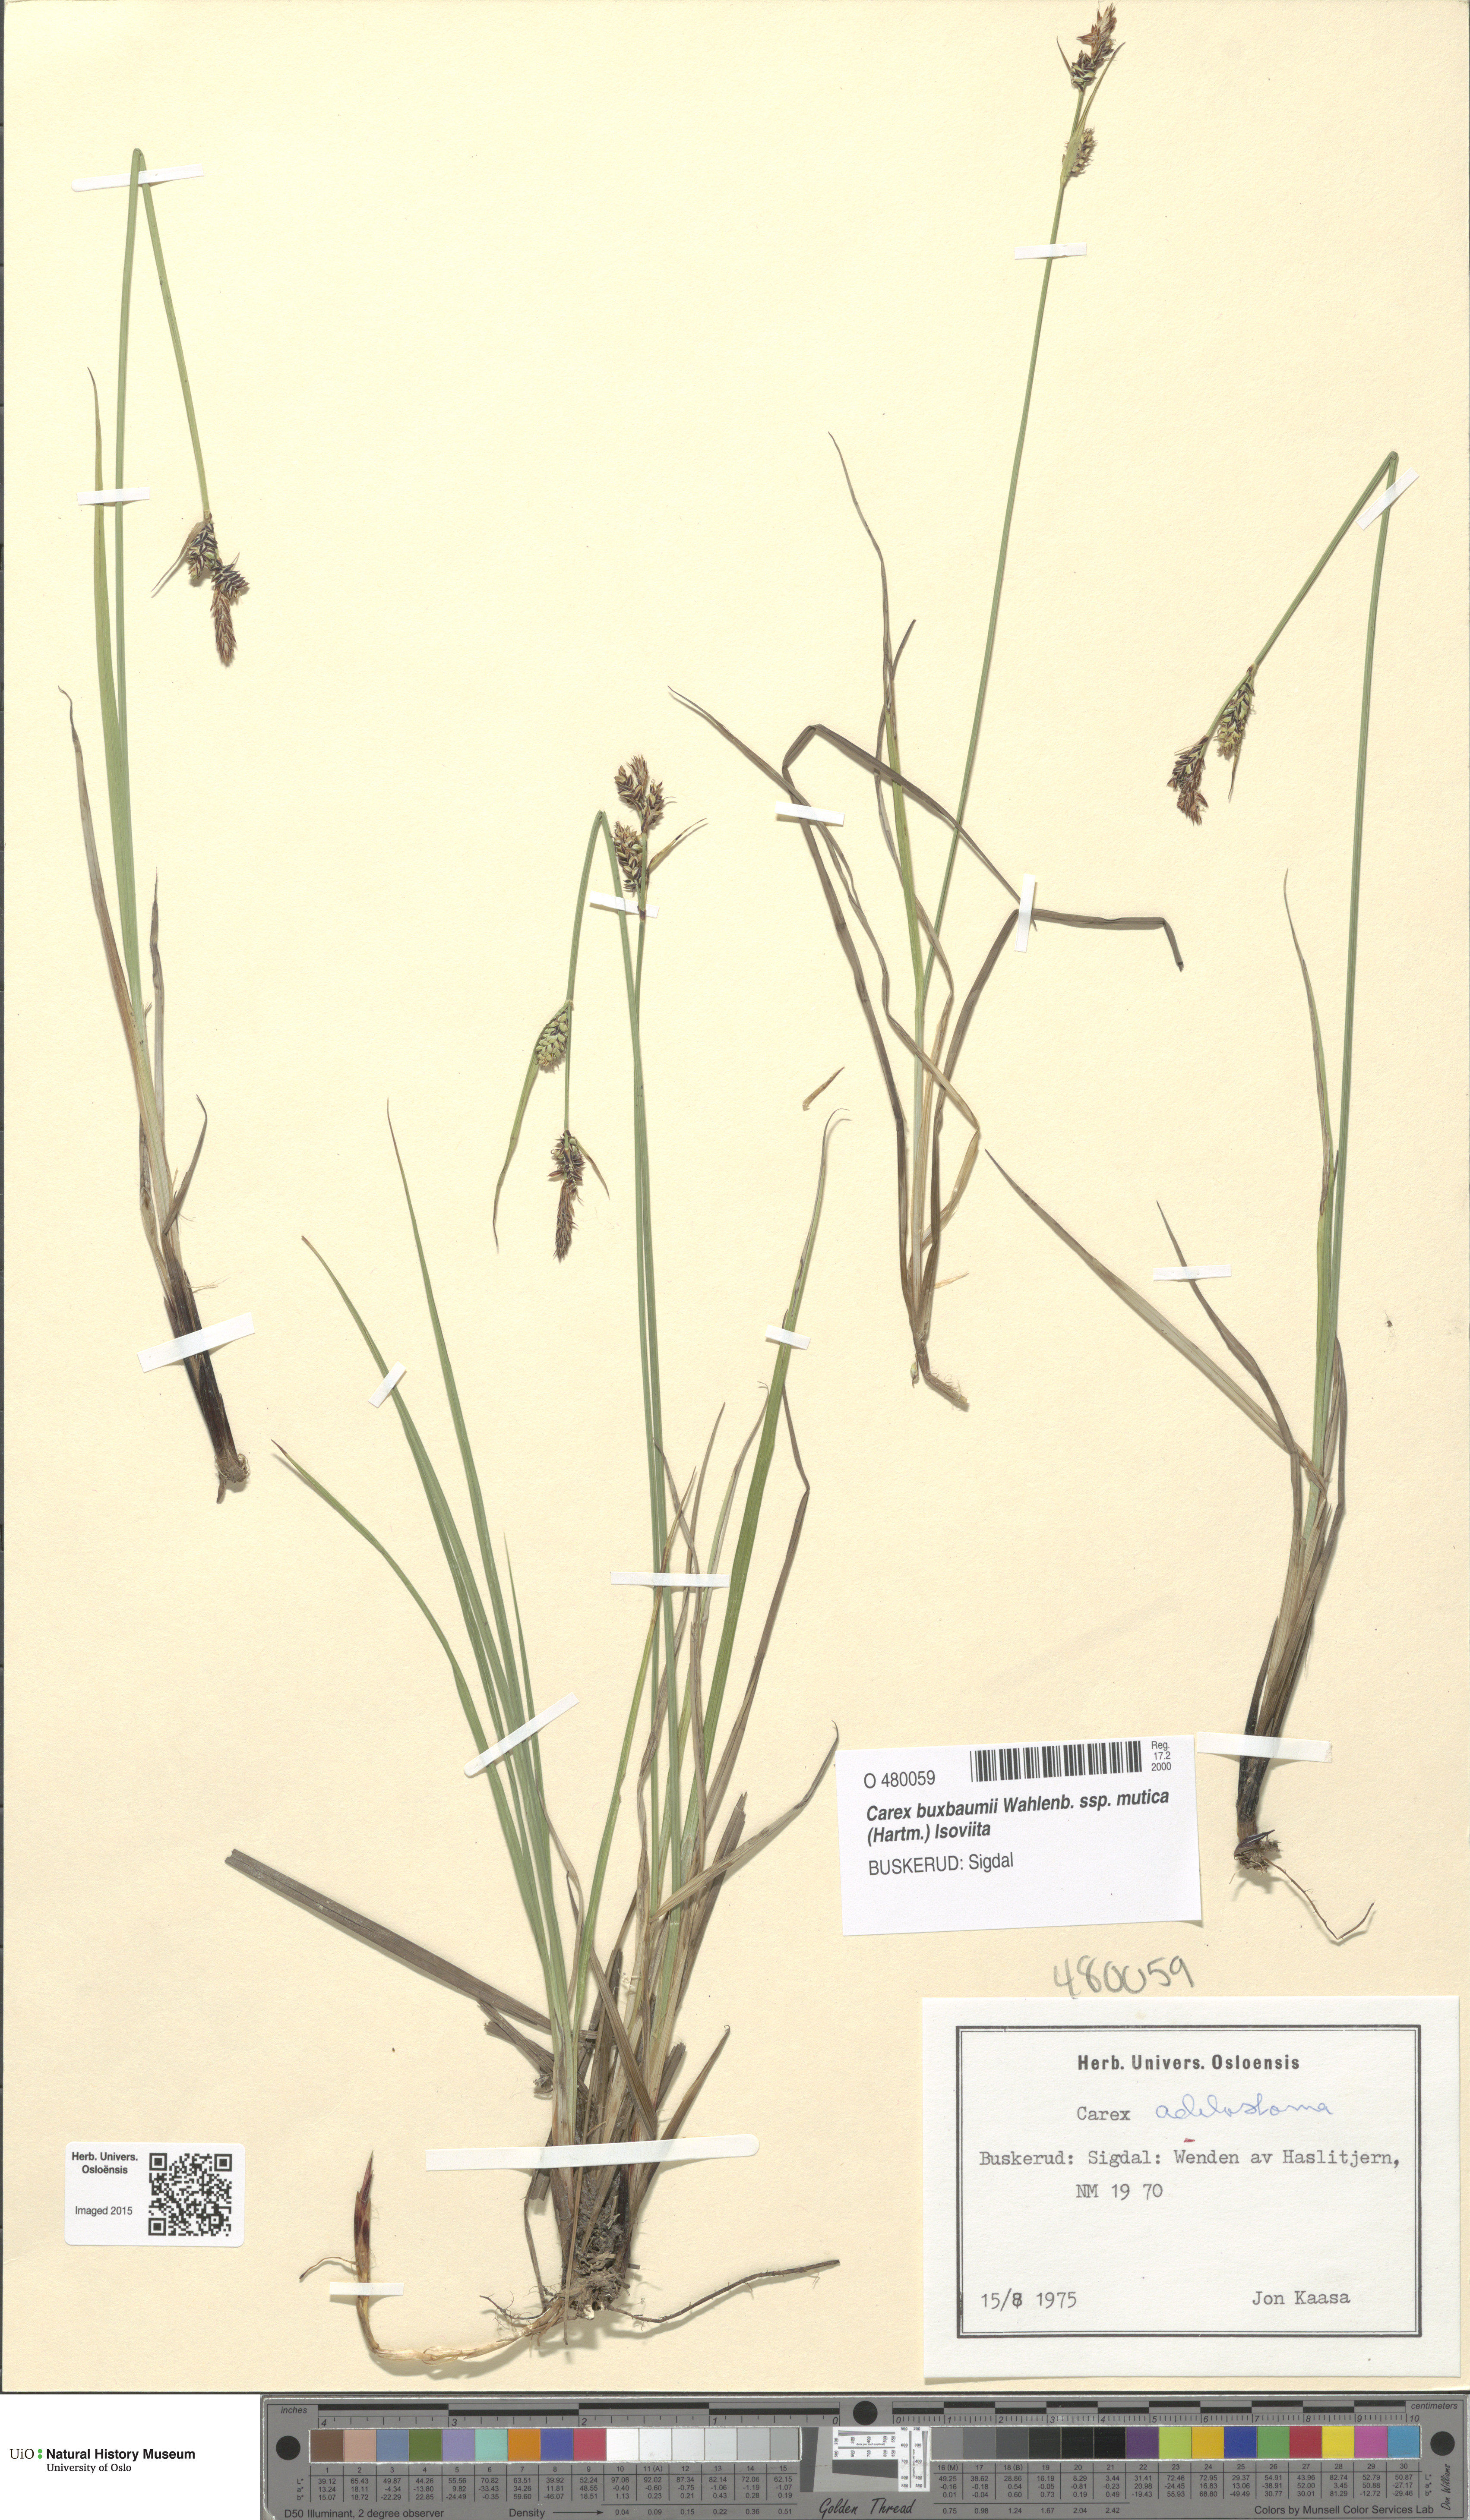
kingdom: Plantae
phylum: Tracheophyta
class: Liliopsida
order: Poales
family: Cyperaceae
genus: Carex
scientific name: Carex adelostoma
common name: Circumpolar sedge
